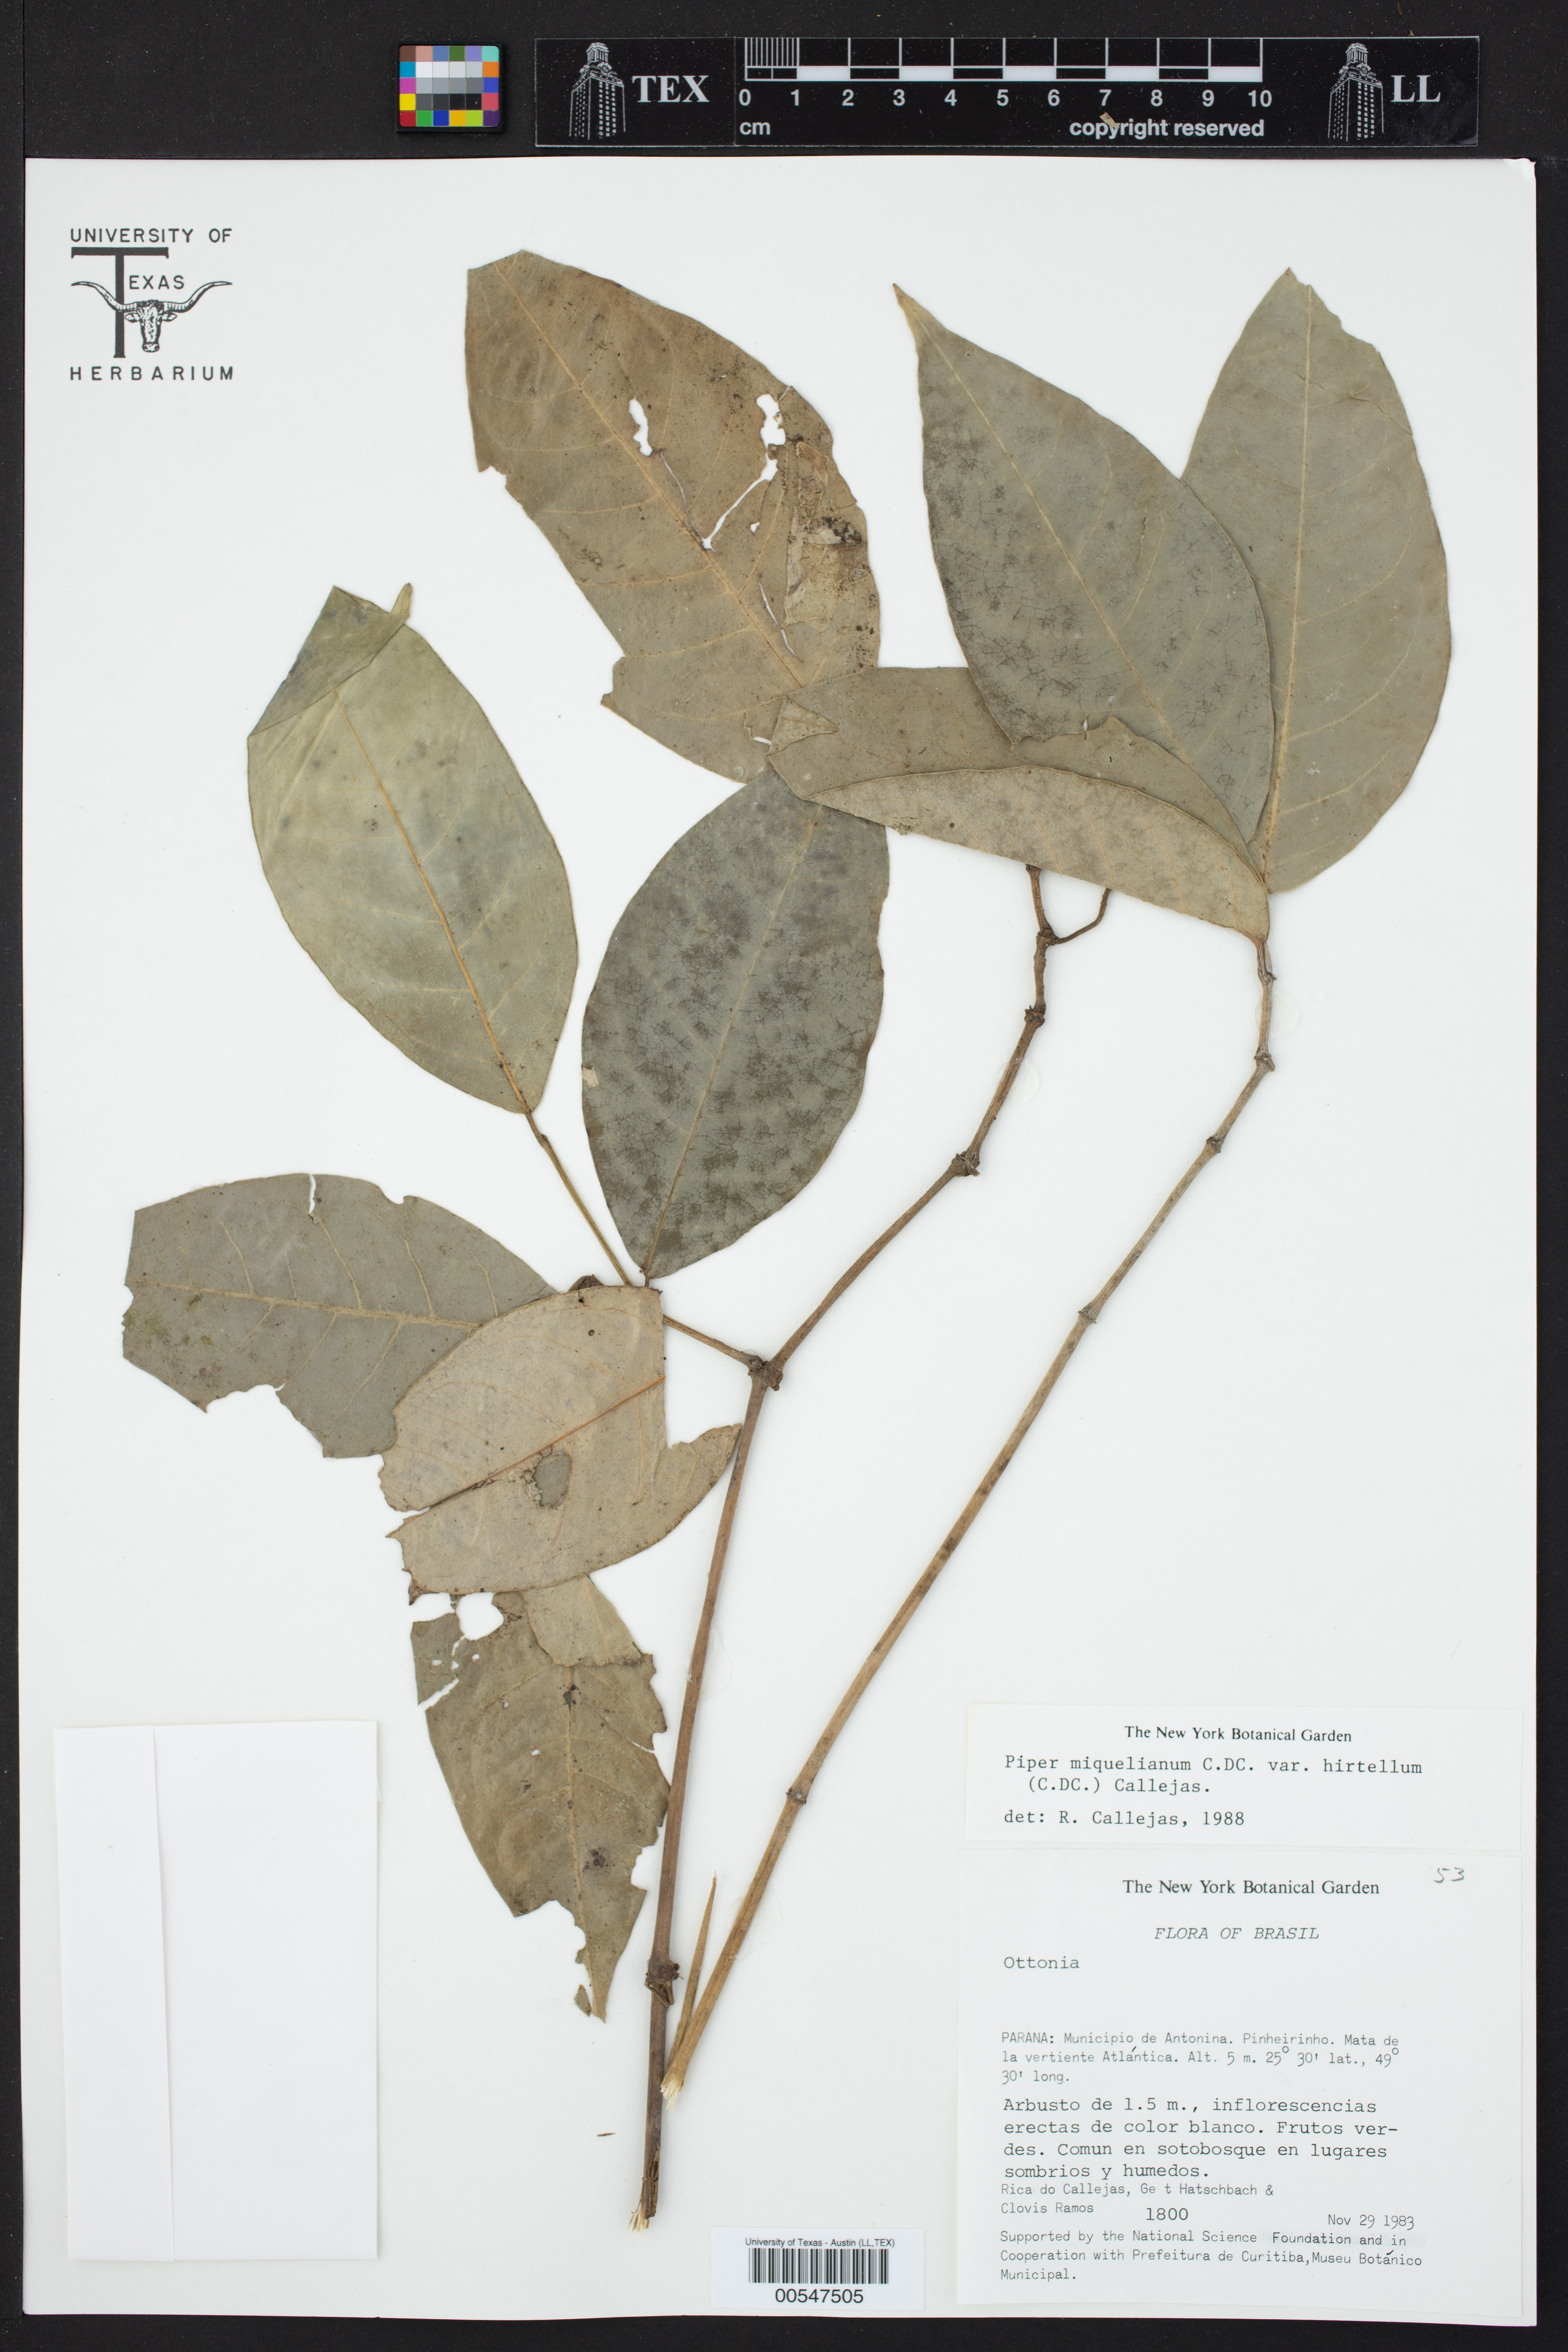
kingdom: Plantae
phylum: Tracheophyta
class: Magnoliopsida
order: Piperales
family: Piperaceae
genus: Piper
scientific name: Piper miquelianum
